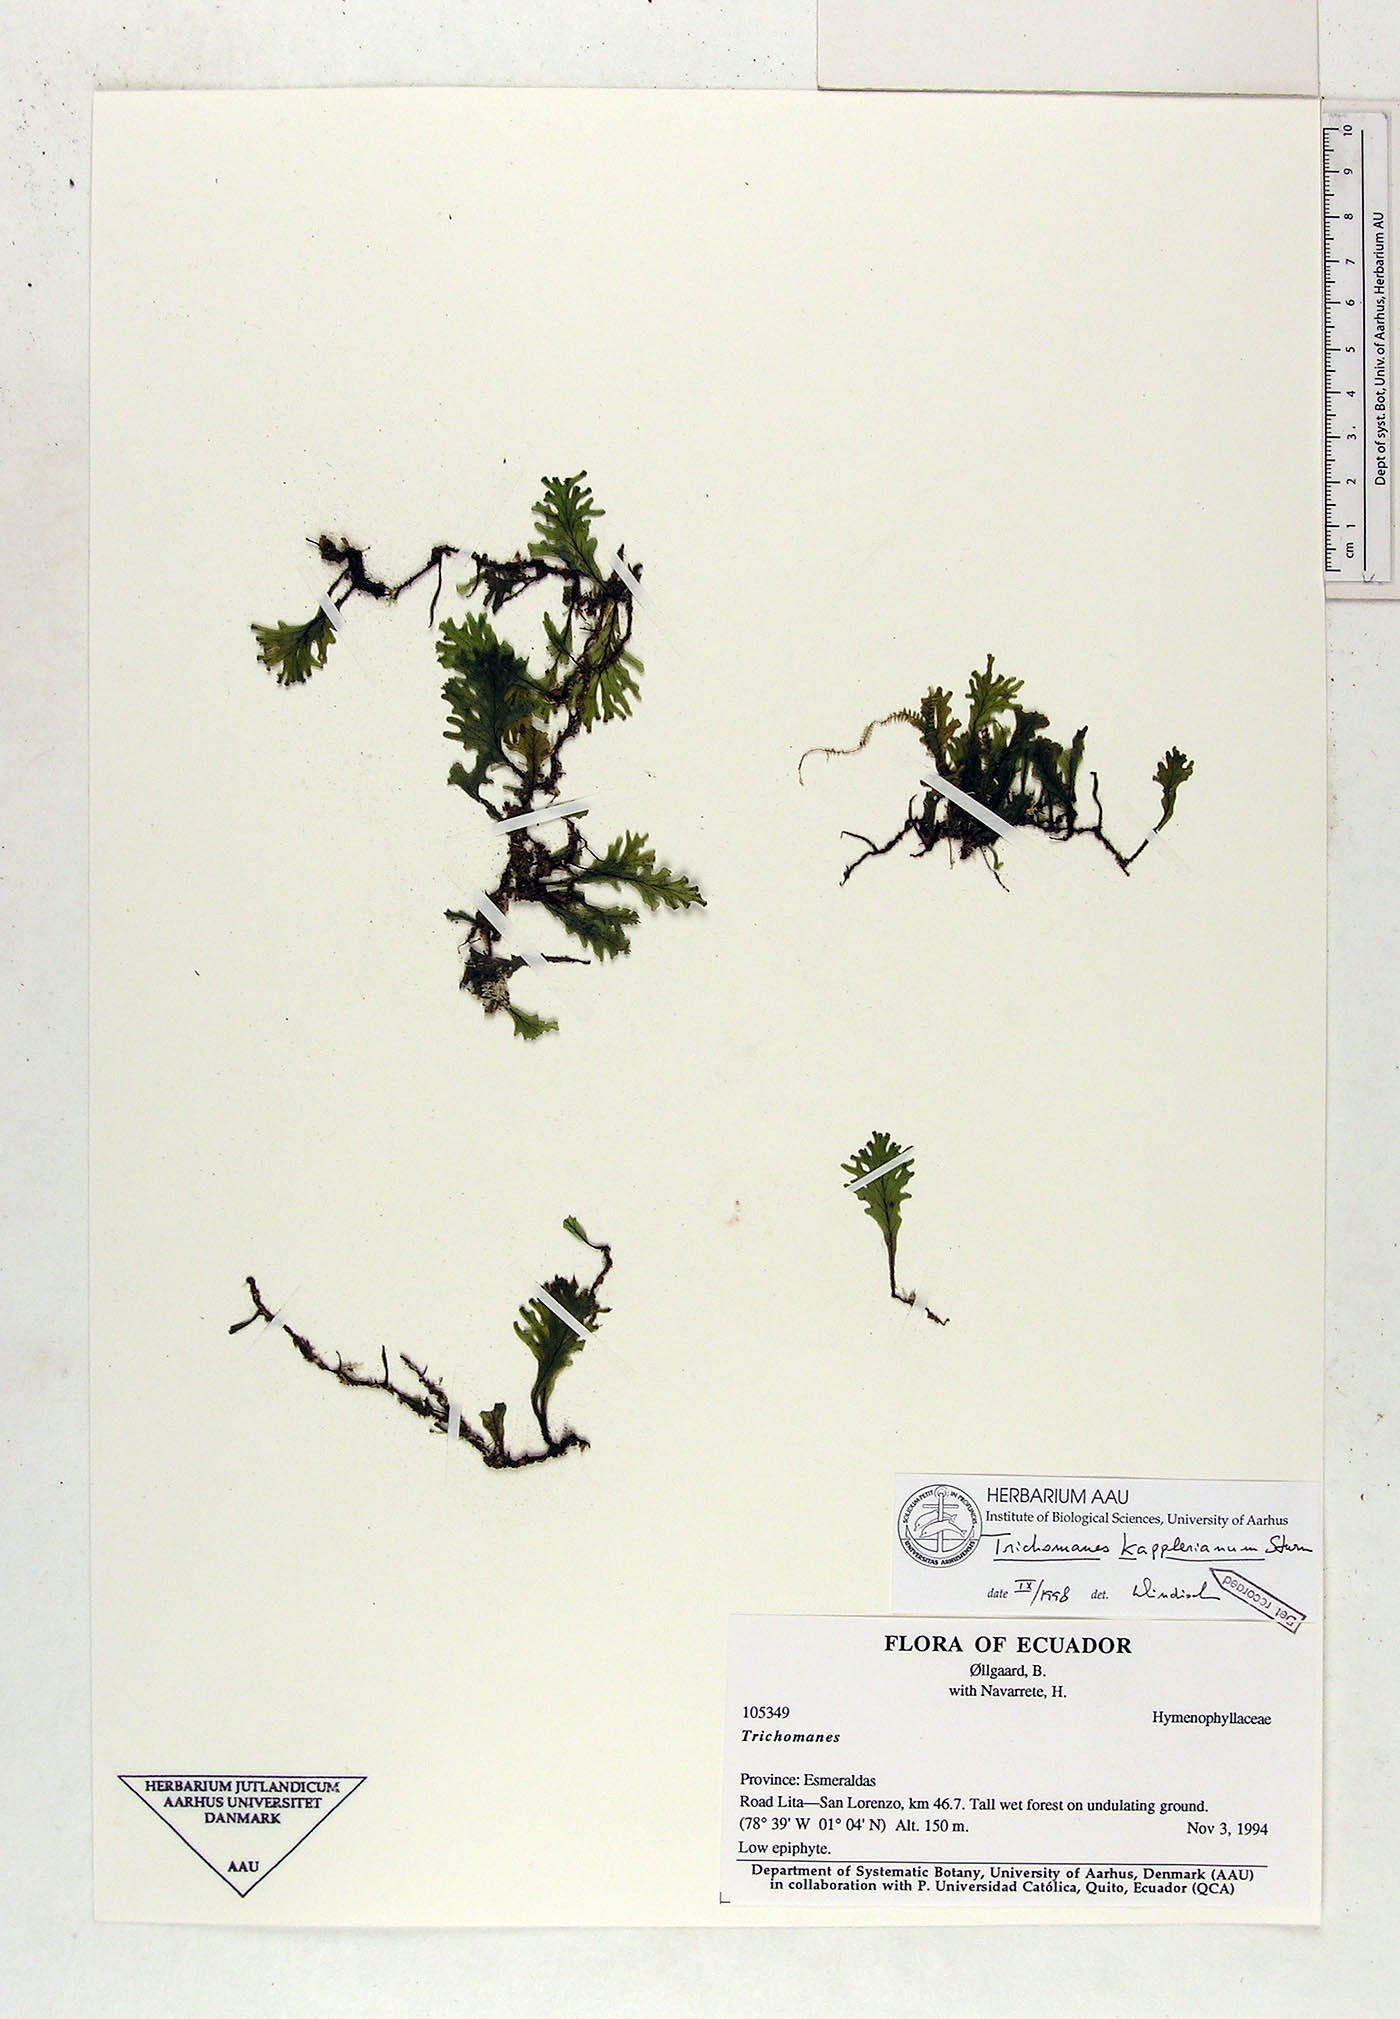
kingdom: Plantae
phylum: Tracheophyta
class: Polypodiopsida
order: Hymenophyllales
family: Hymenophyllaceae
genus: Didymoglossum
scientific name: Didymoglossum kapplerianum
